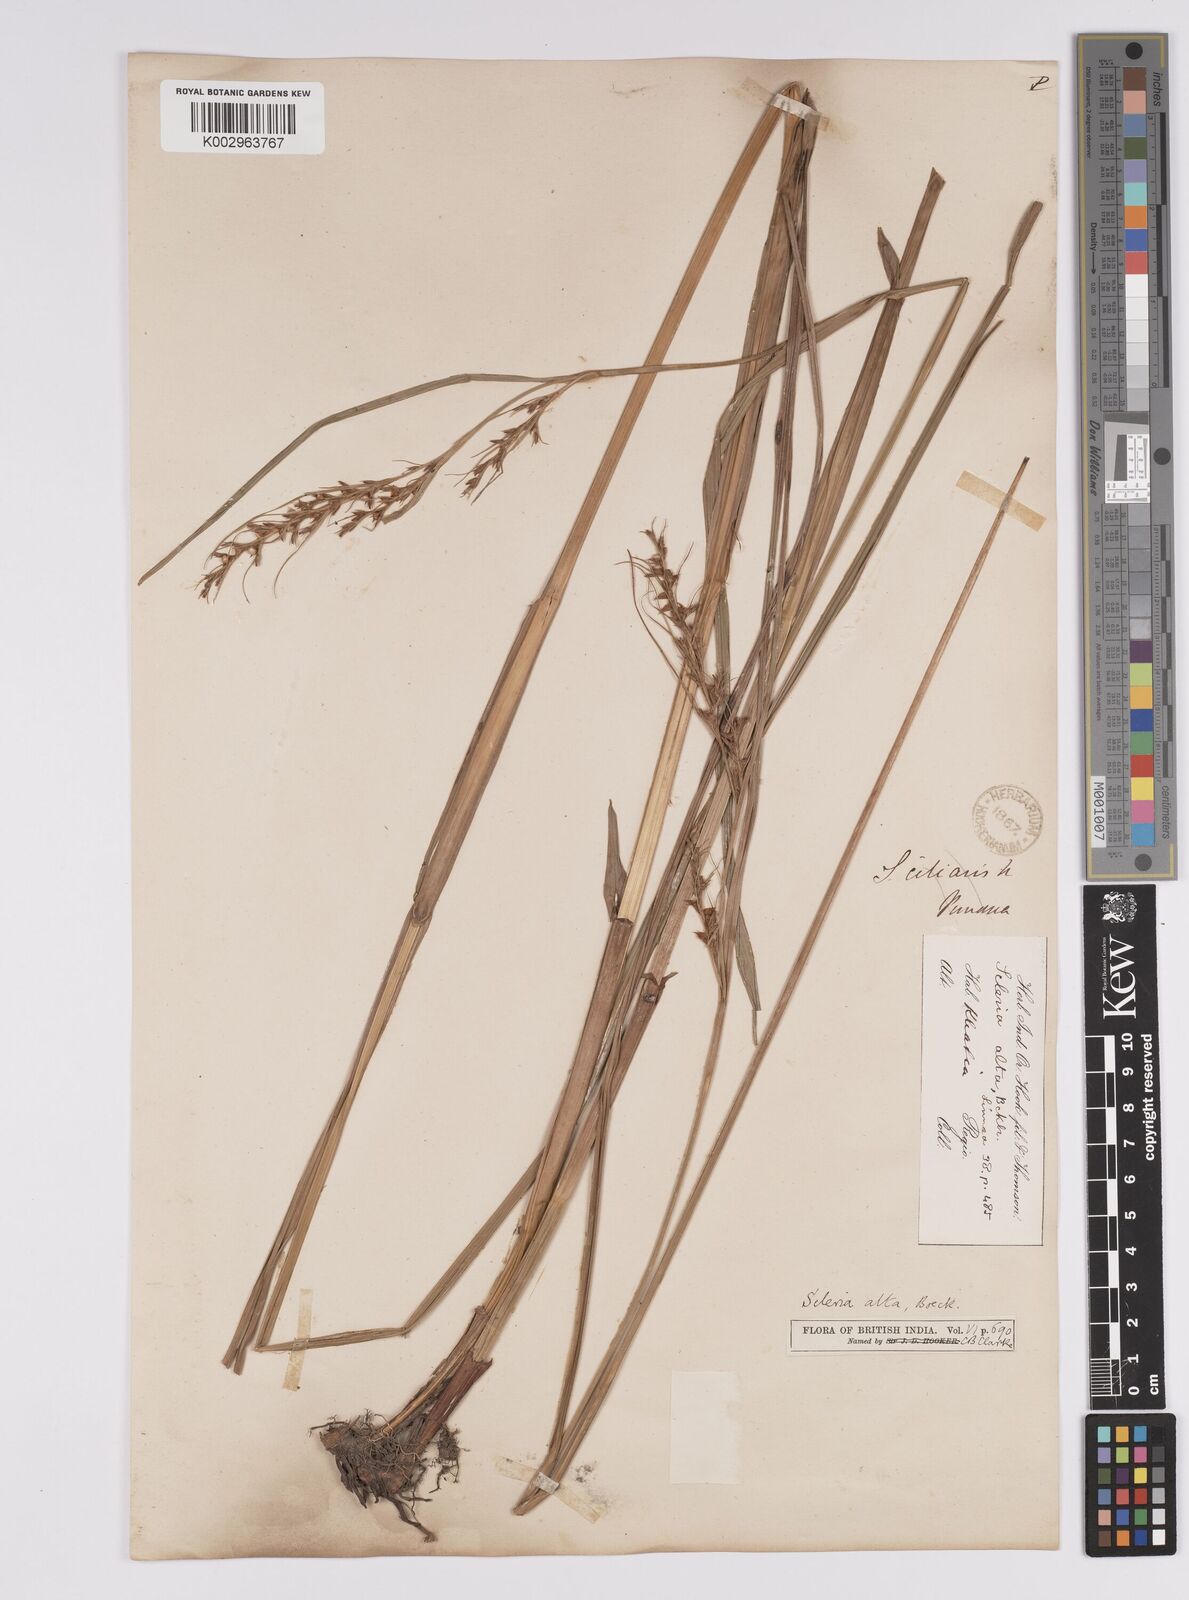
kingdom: Plantae
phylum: Tracheophyta
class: Liliopsida
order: Poales
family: Cyperaceae
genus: Scleria
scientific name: Scleria levis
